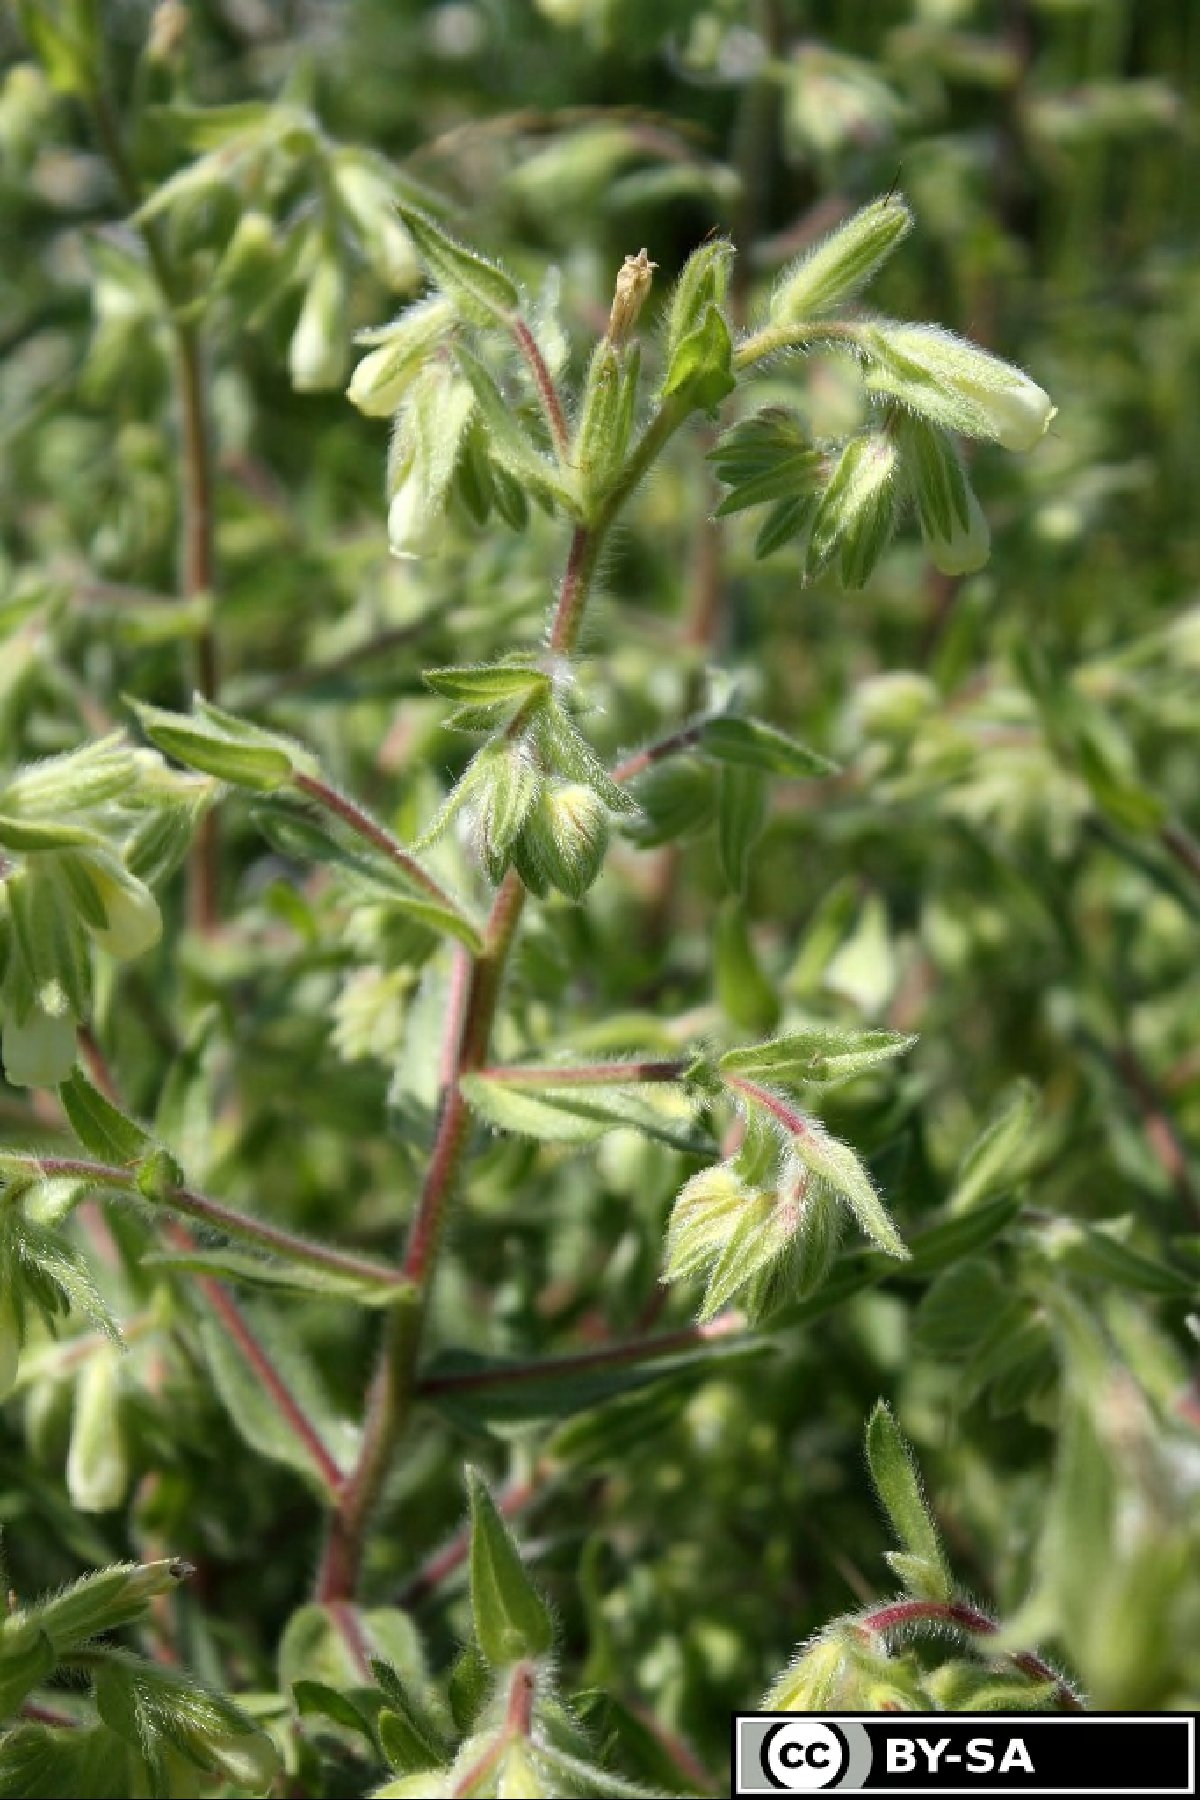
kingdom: Plantae
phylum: Tracheophyta
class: Magnoliopsida
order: Boraginales
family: Boraginaceae
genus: Onosma
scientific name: Onosma arenaria
